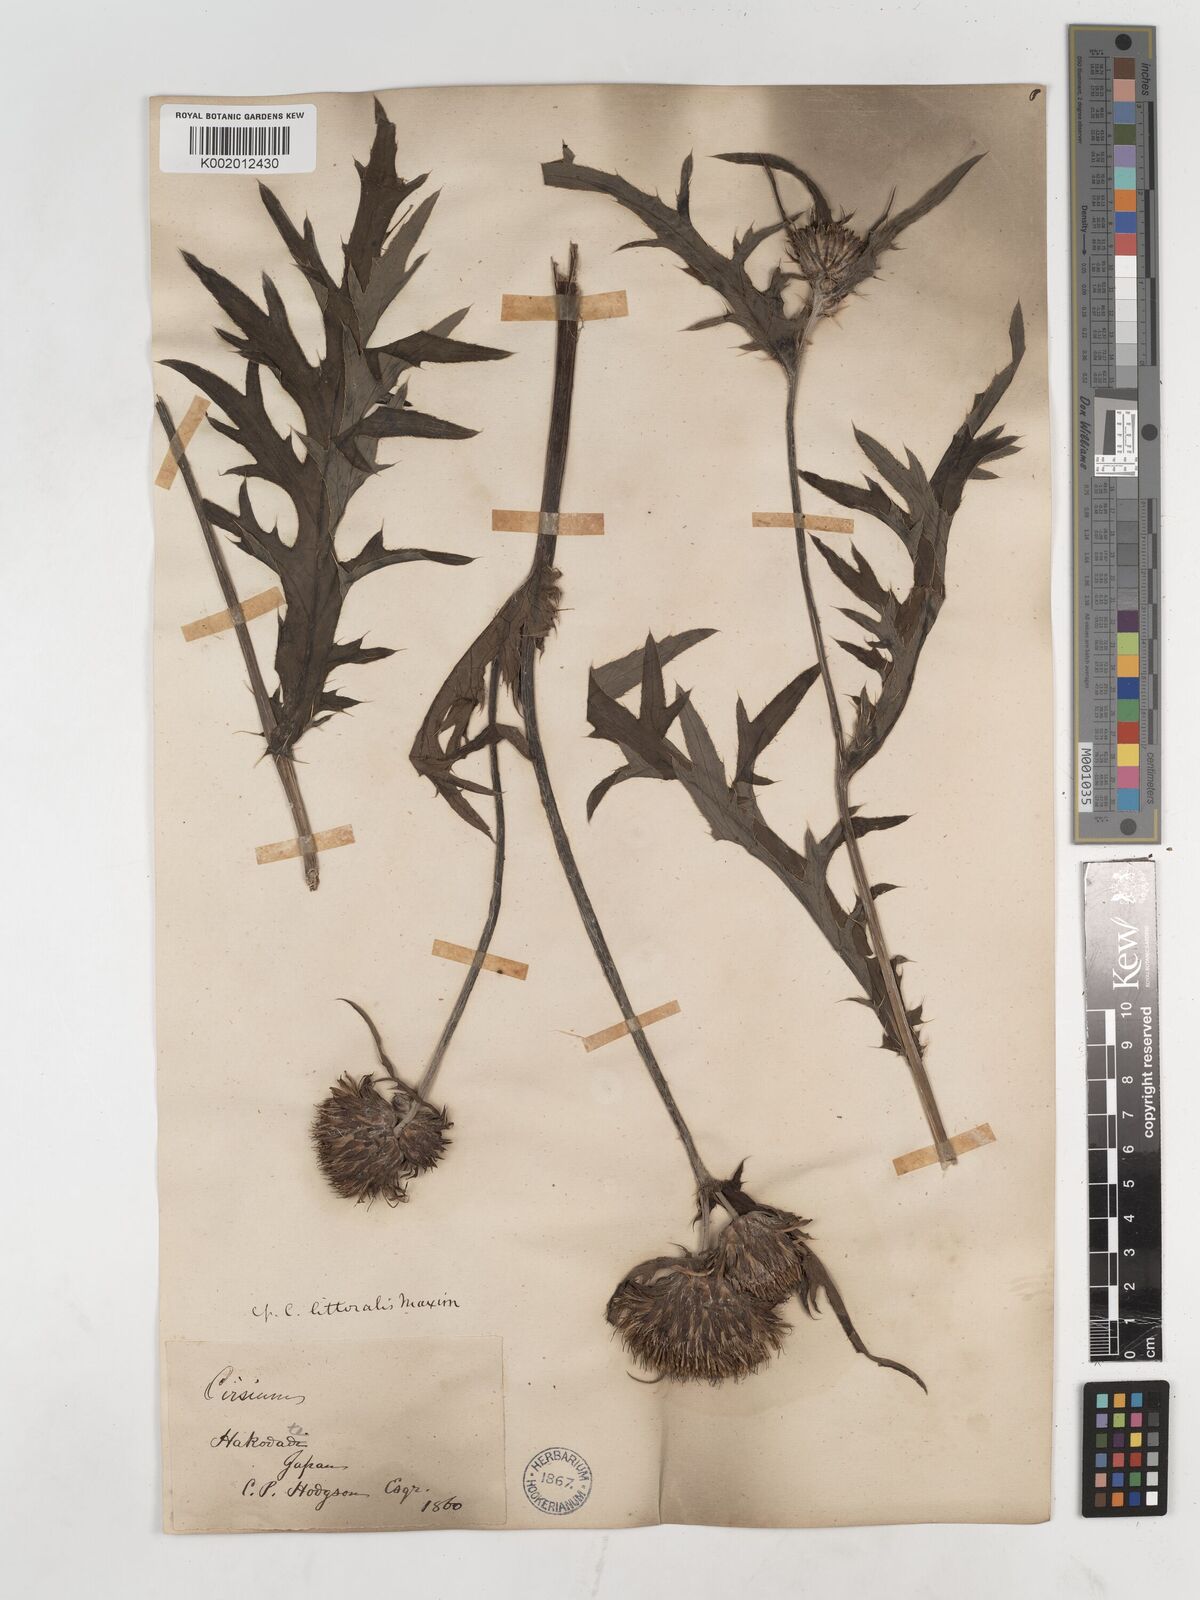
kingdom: Plantae
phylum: Tracheophyta
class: Magnoliopsida
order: Asterales
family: Asteraceae
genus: Cirsium
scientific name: Cirsium
